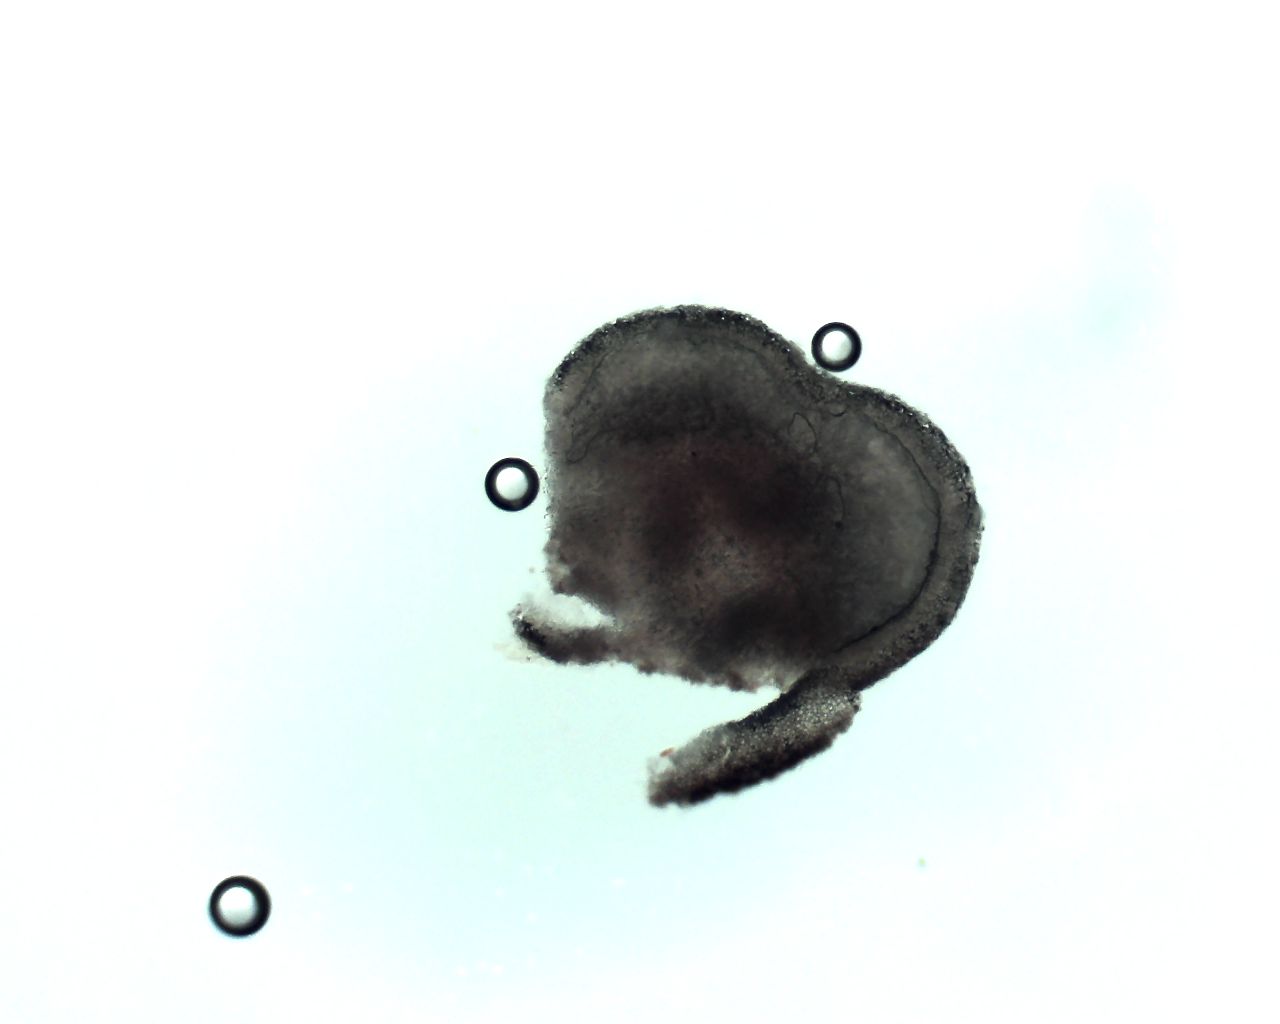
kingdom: Fungi
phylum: Ascomycota
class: Leotiomycetes
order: Helotiales
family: Mollisiaceae
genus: Mollisia
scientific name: Mollisia amenticola
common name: ellekogle-gråskive
